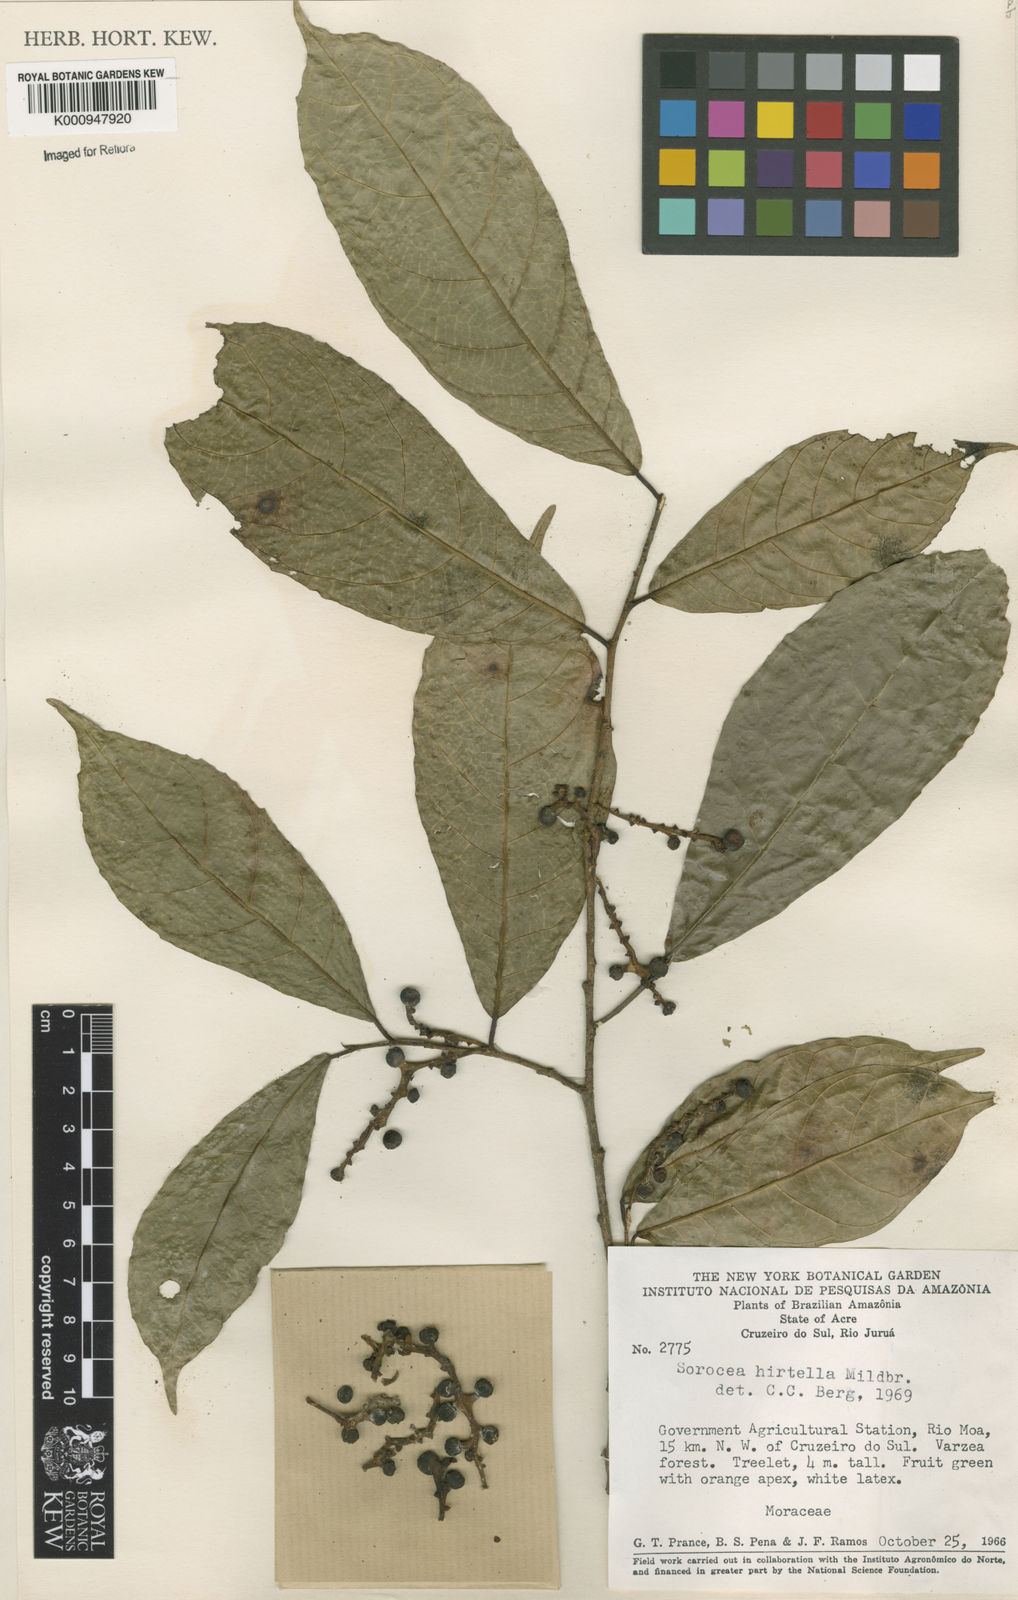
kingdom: Plantae
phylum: Tracheophyta
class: Magnoliopsida
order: Rosales
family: Moraceae
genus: Sorocea
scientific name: Sorocea pubivena
